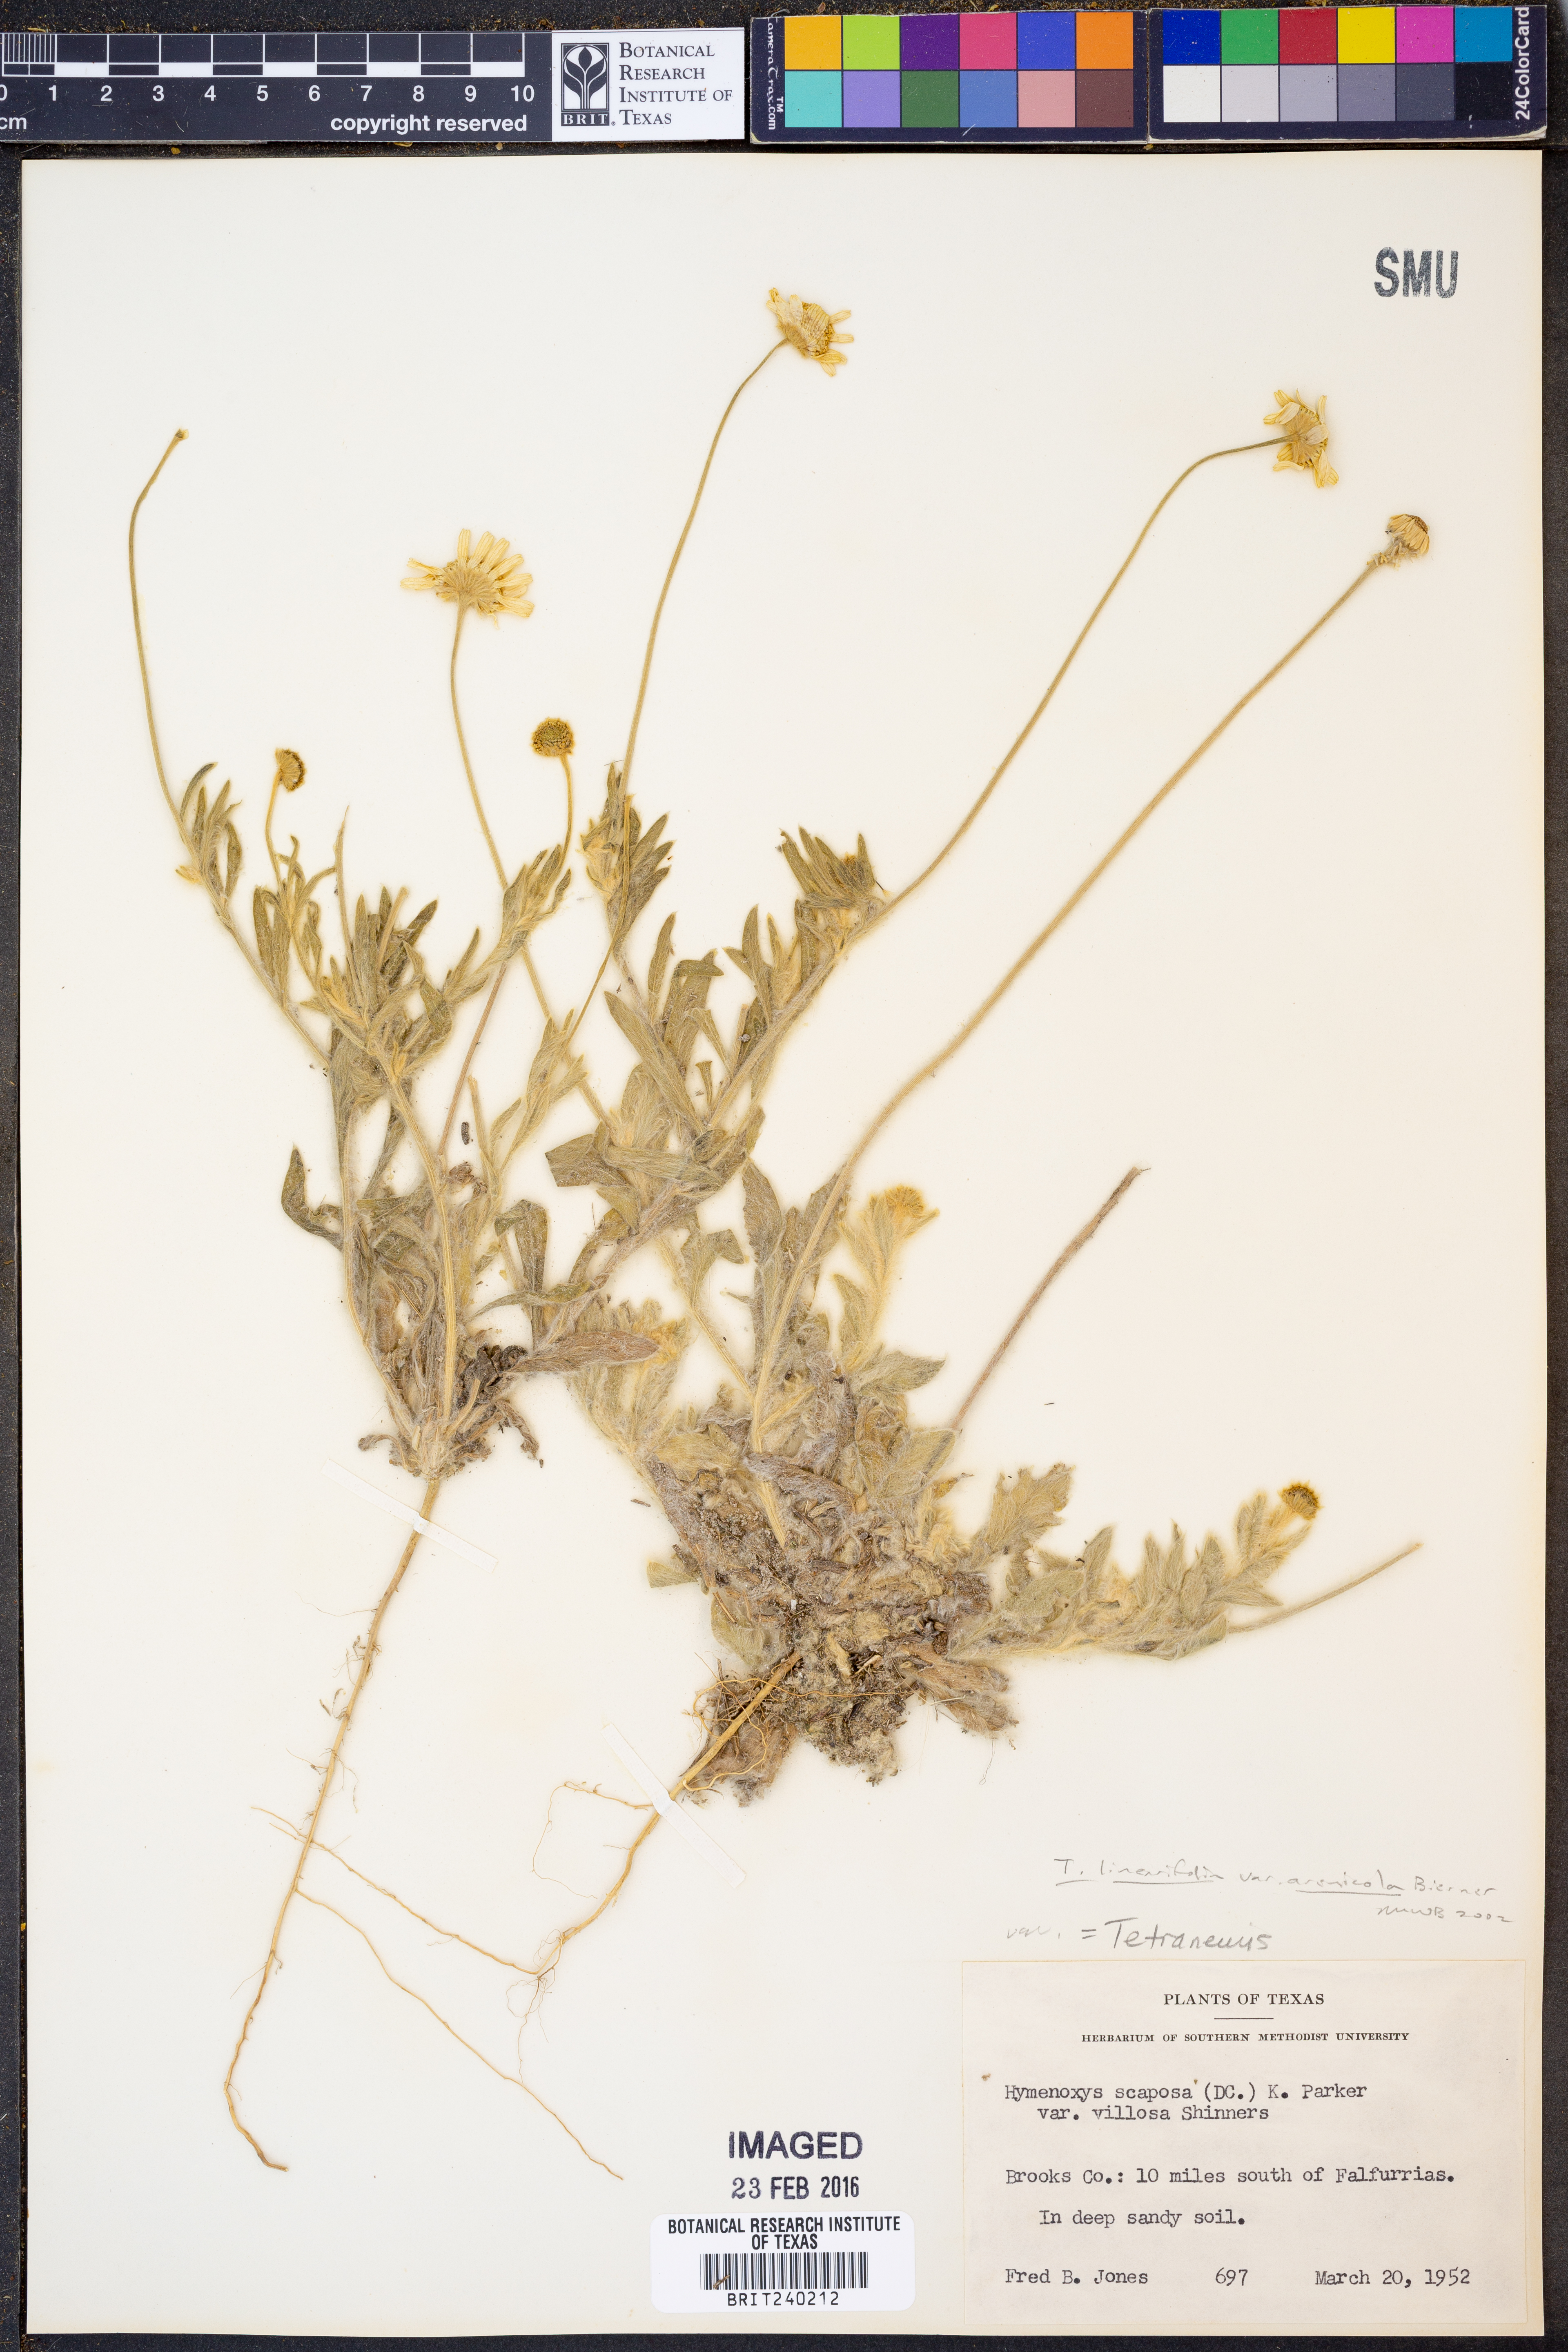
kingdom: Plantae
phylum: Tracheophyta
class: Magnoliopsida
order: Asterales
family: Asteraceae
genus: Tetraneuris
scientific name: Tetraneuris linearifolia
